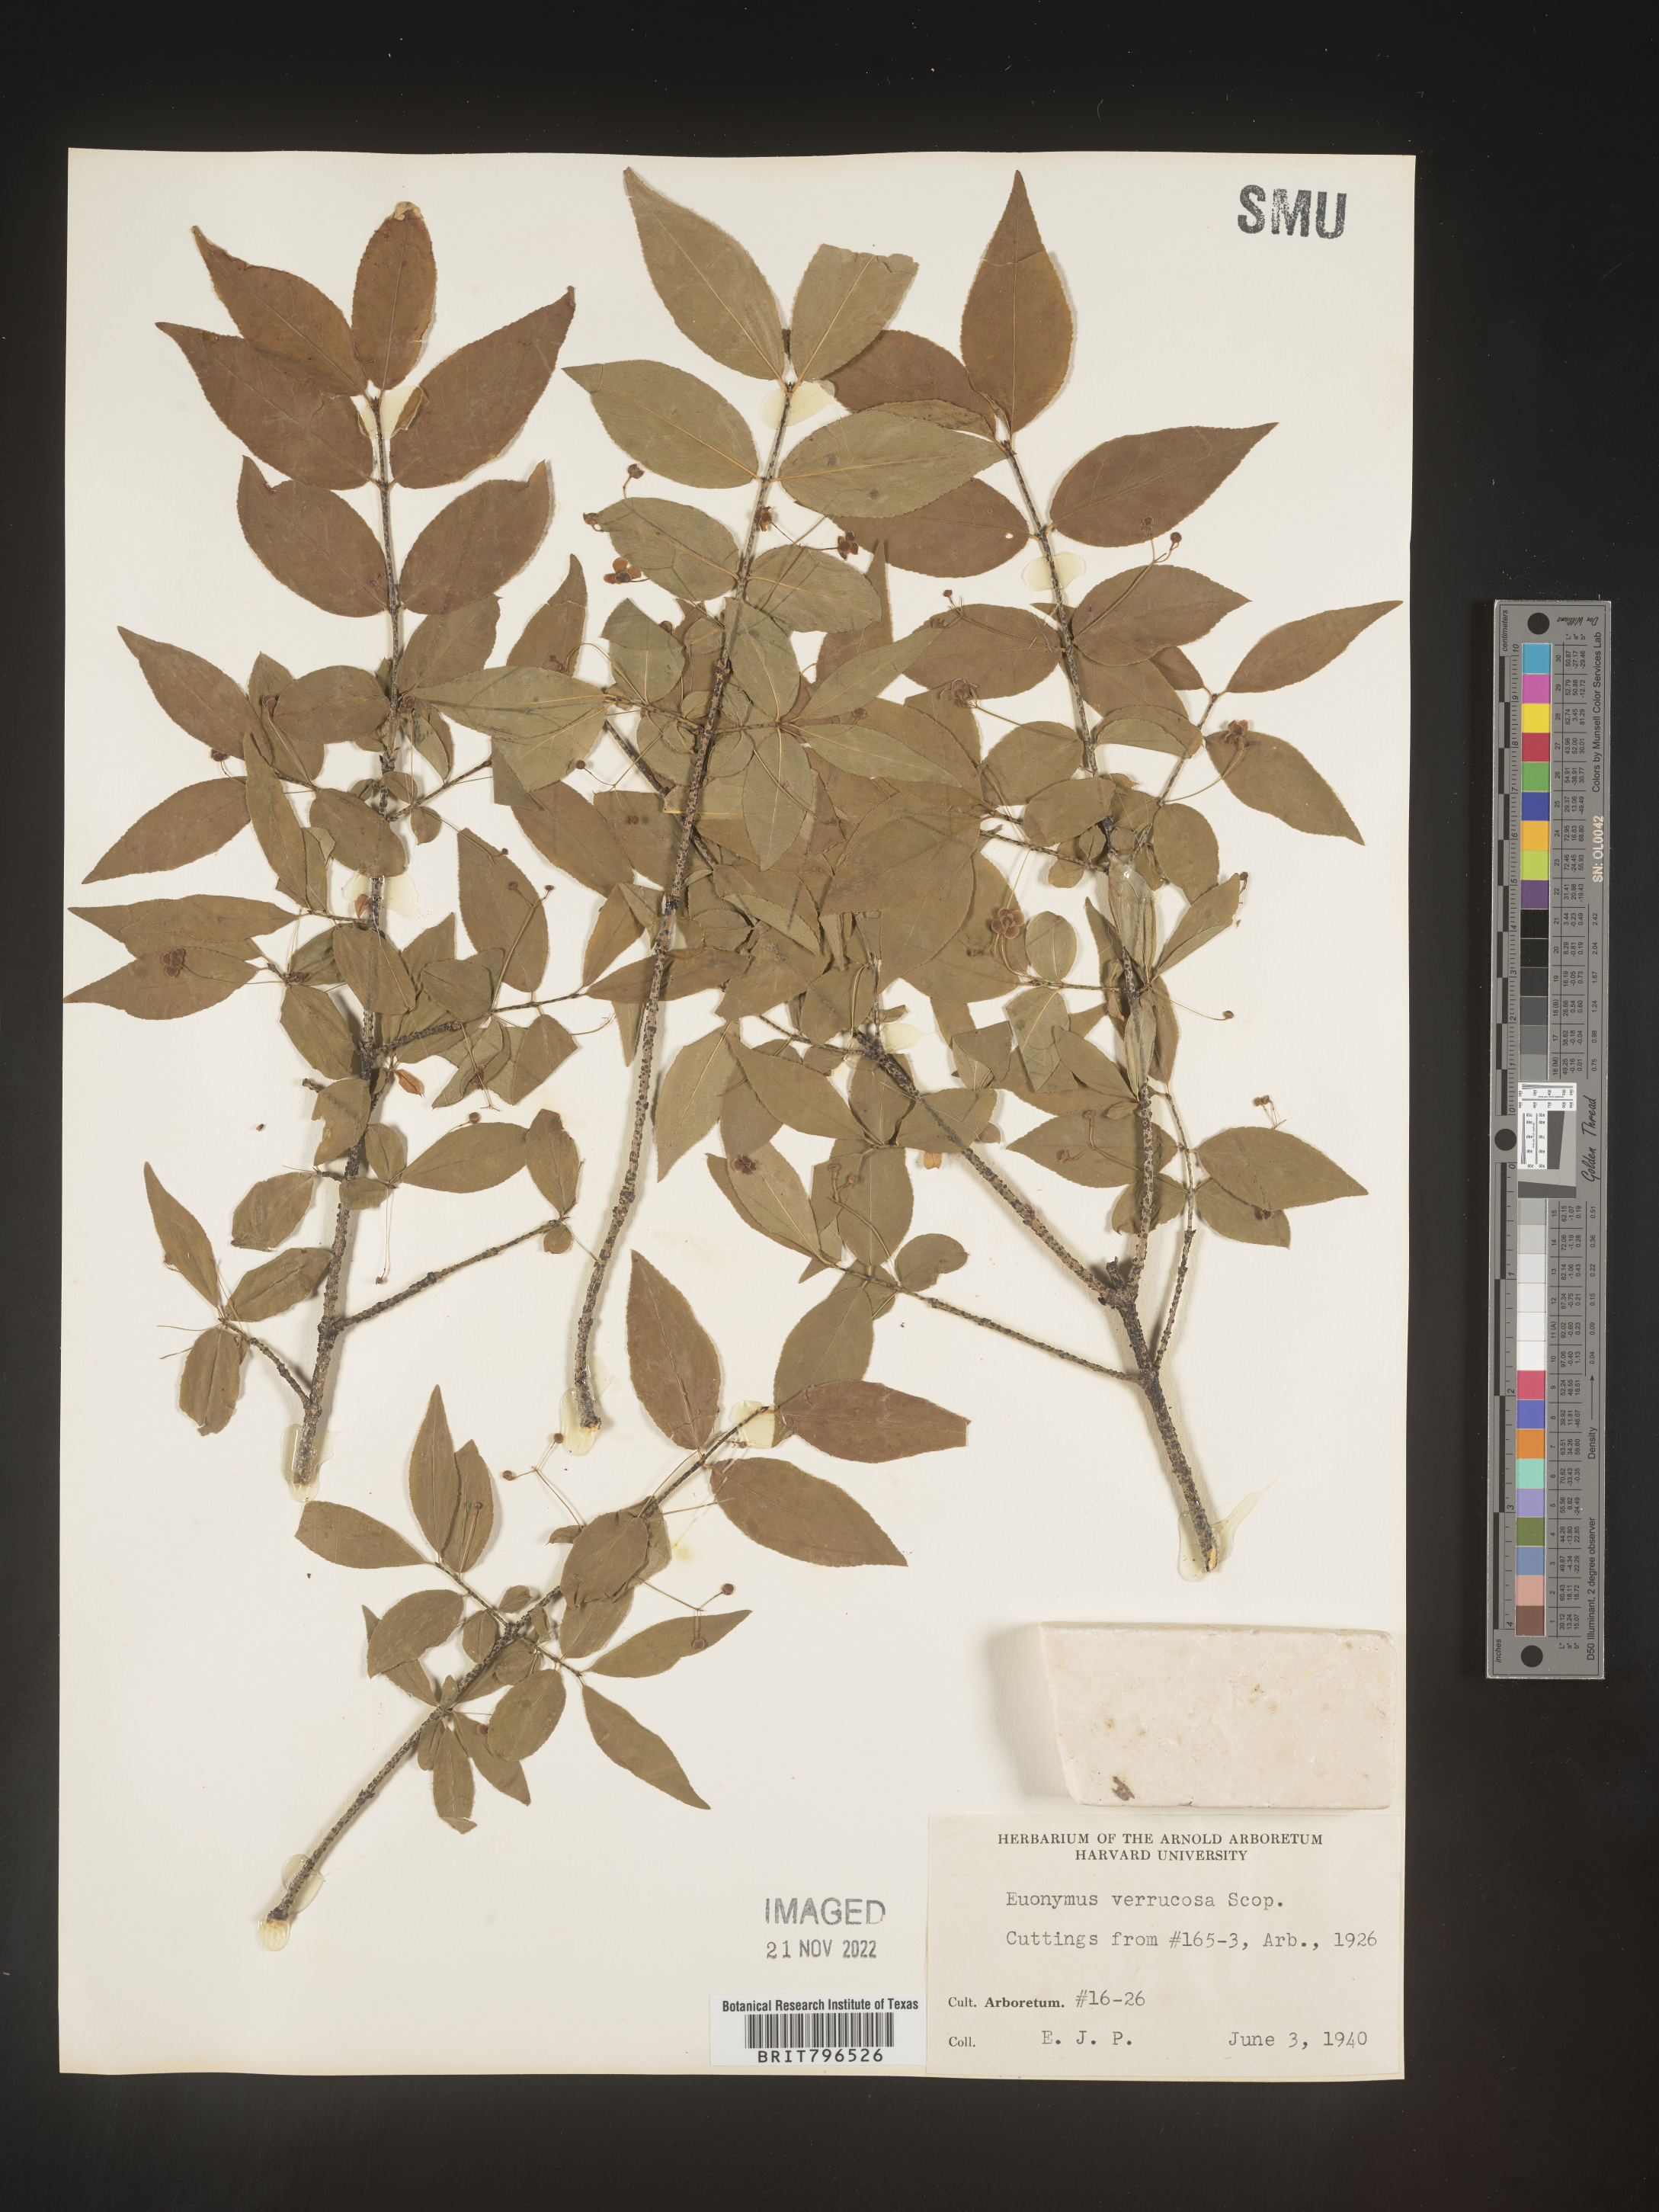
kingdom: Plantae
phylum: Tracheophyta
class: Magnoliopsida
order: Celastrales
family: Celastraceae
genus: Euonymus
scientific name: Euonymus
